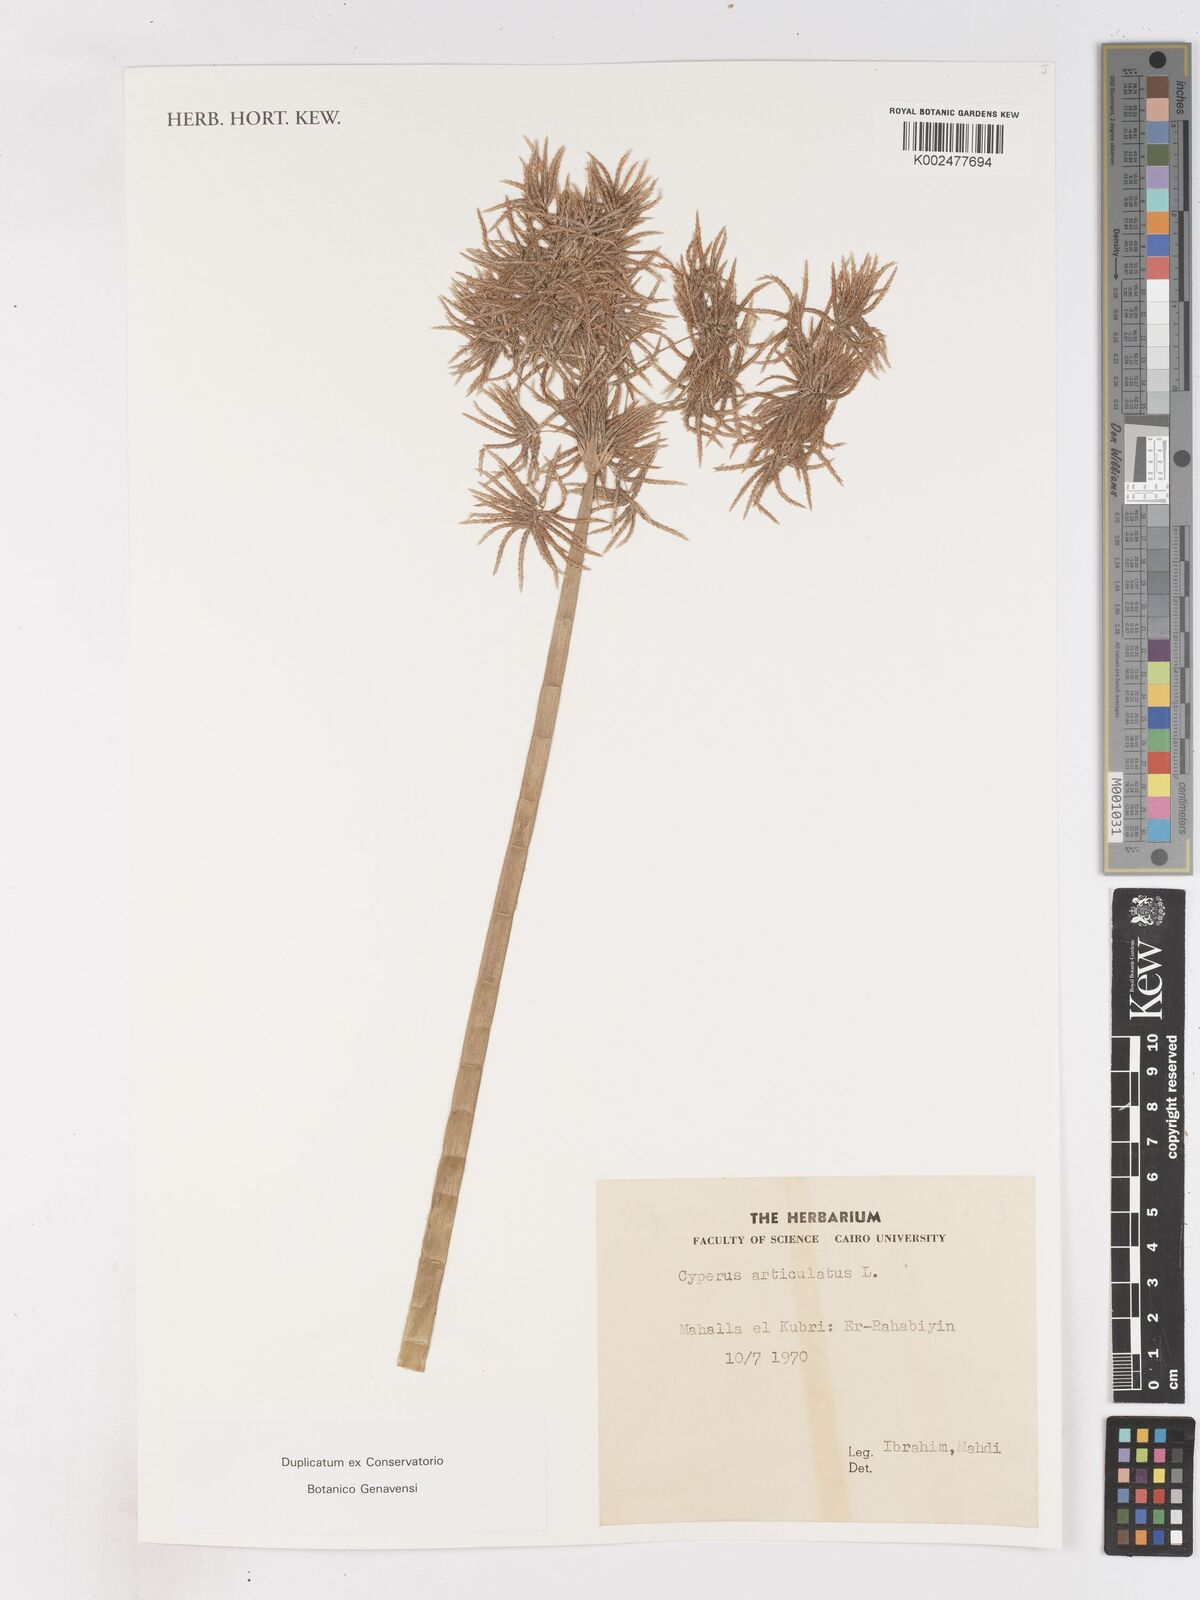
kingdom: Plantae
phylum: Tracheophyta
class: Liliopsida
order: Poales
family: Cyperaceae
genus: Cyperus
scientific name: Cyperus articulatus
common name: Jointed flatsedge
